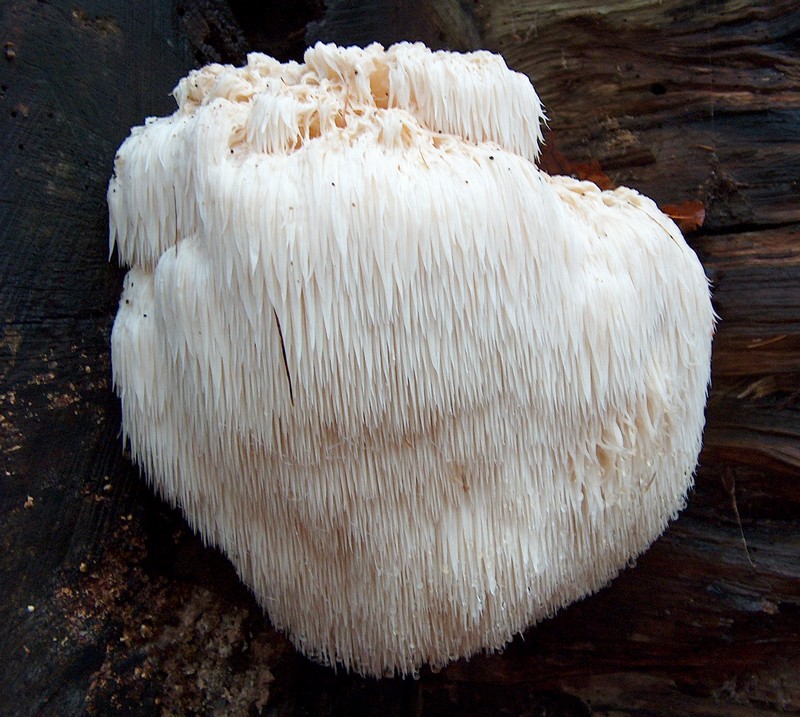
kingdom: Fungi
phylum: Basidiomycota
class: Agaricomycetes
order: Russulales
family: Hericiaceae
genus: Hericium
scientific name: Hericium erinaceus
